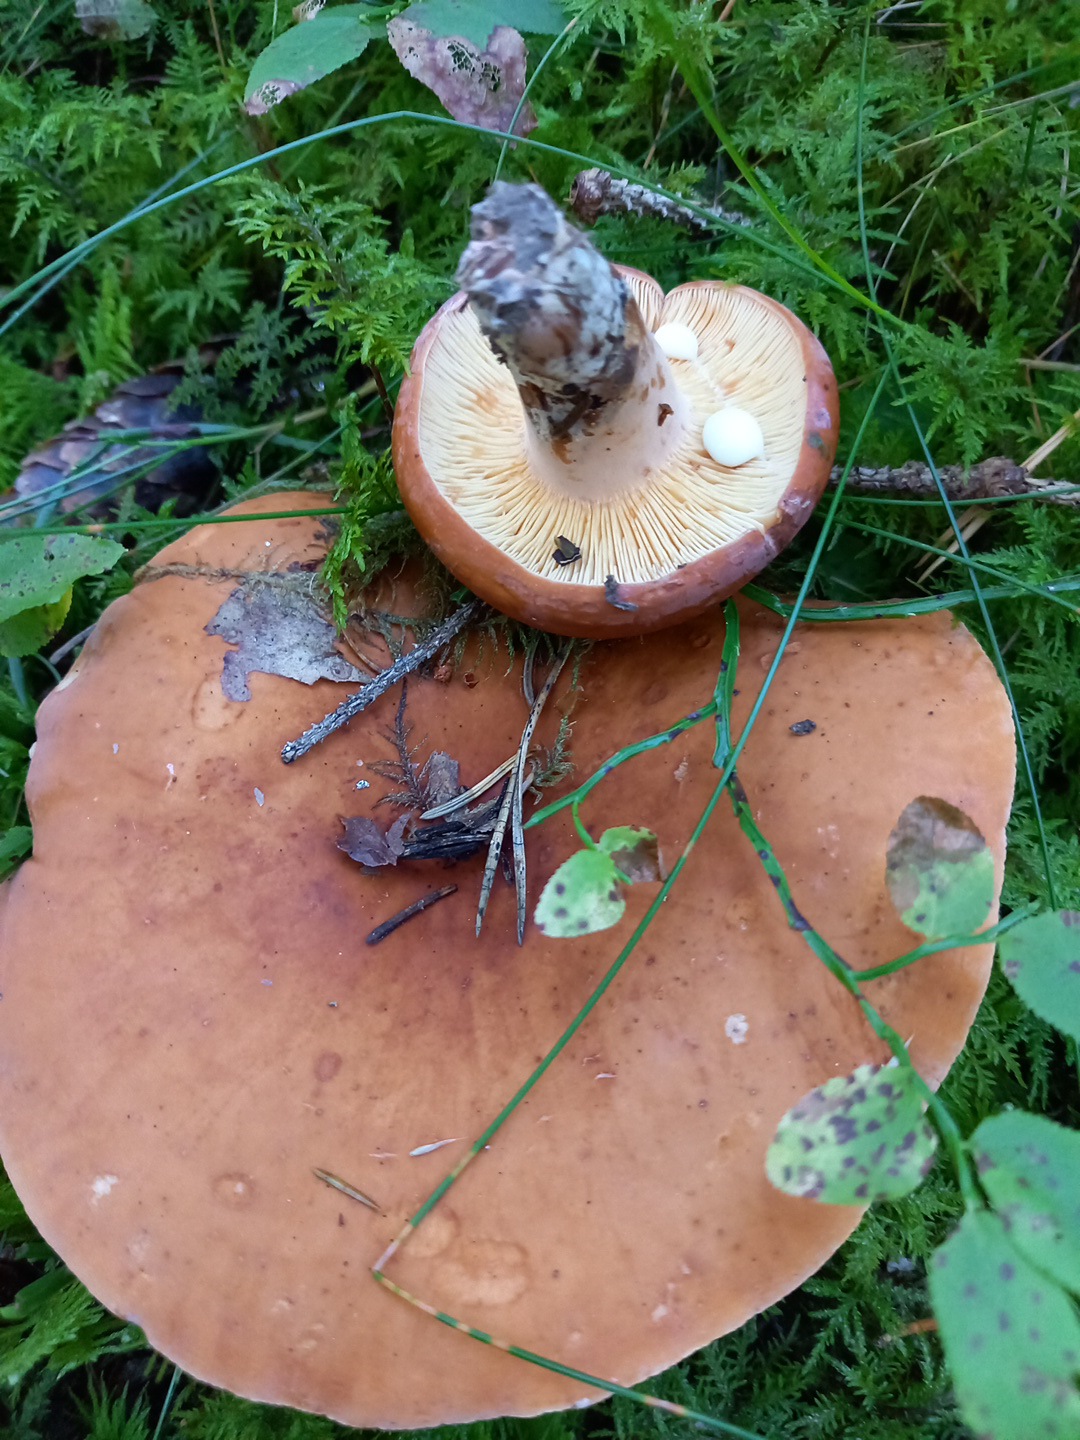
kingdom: Fungi
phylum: Basidiomycota
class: Agaricomycetes
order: Russulales
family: Russulaceae
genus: Lactifluus
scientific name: Lactifluus volemus
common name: spiselig mælkehat
